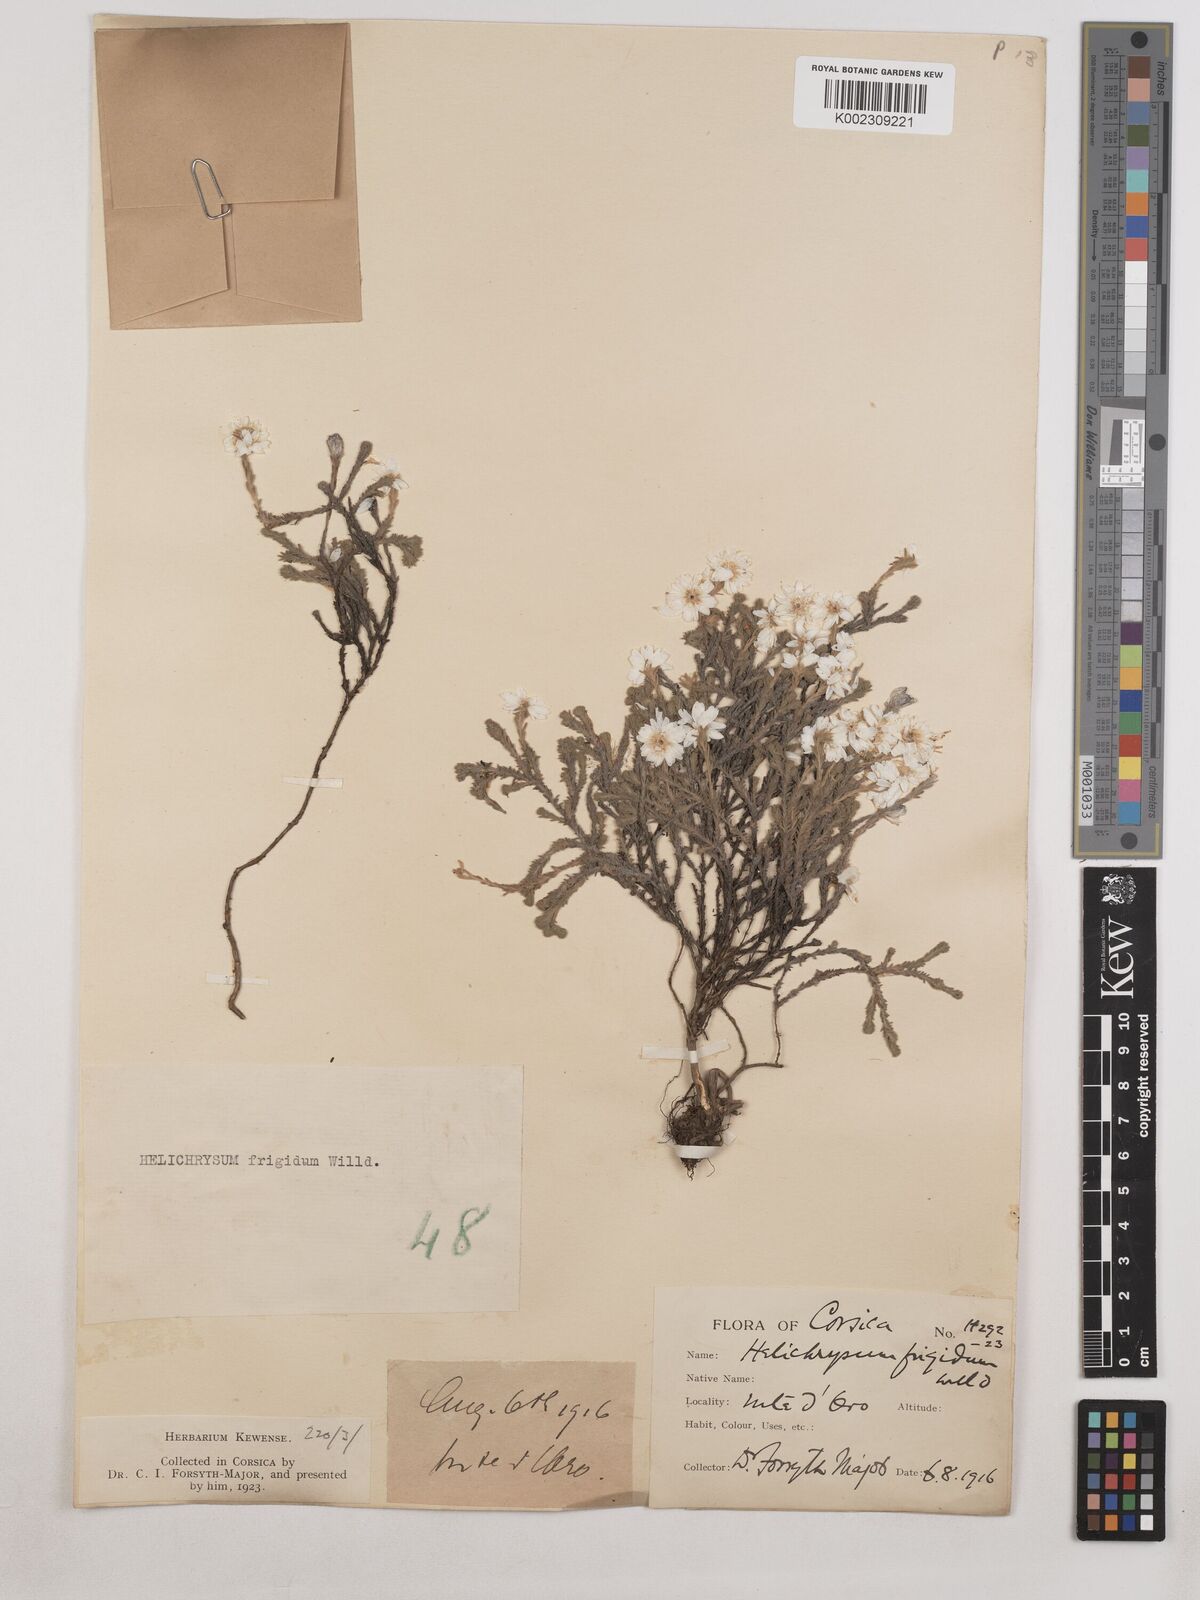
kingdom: Plantae
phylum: Tracheophyta
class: Magnoliopsida
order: Asterales
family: Asteraceae
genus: Castroviejoa
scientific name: Castroviejoa frigida
